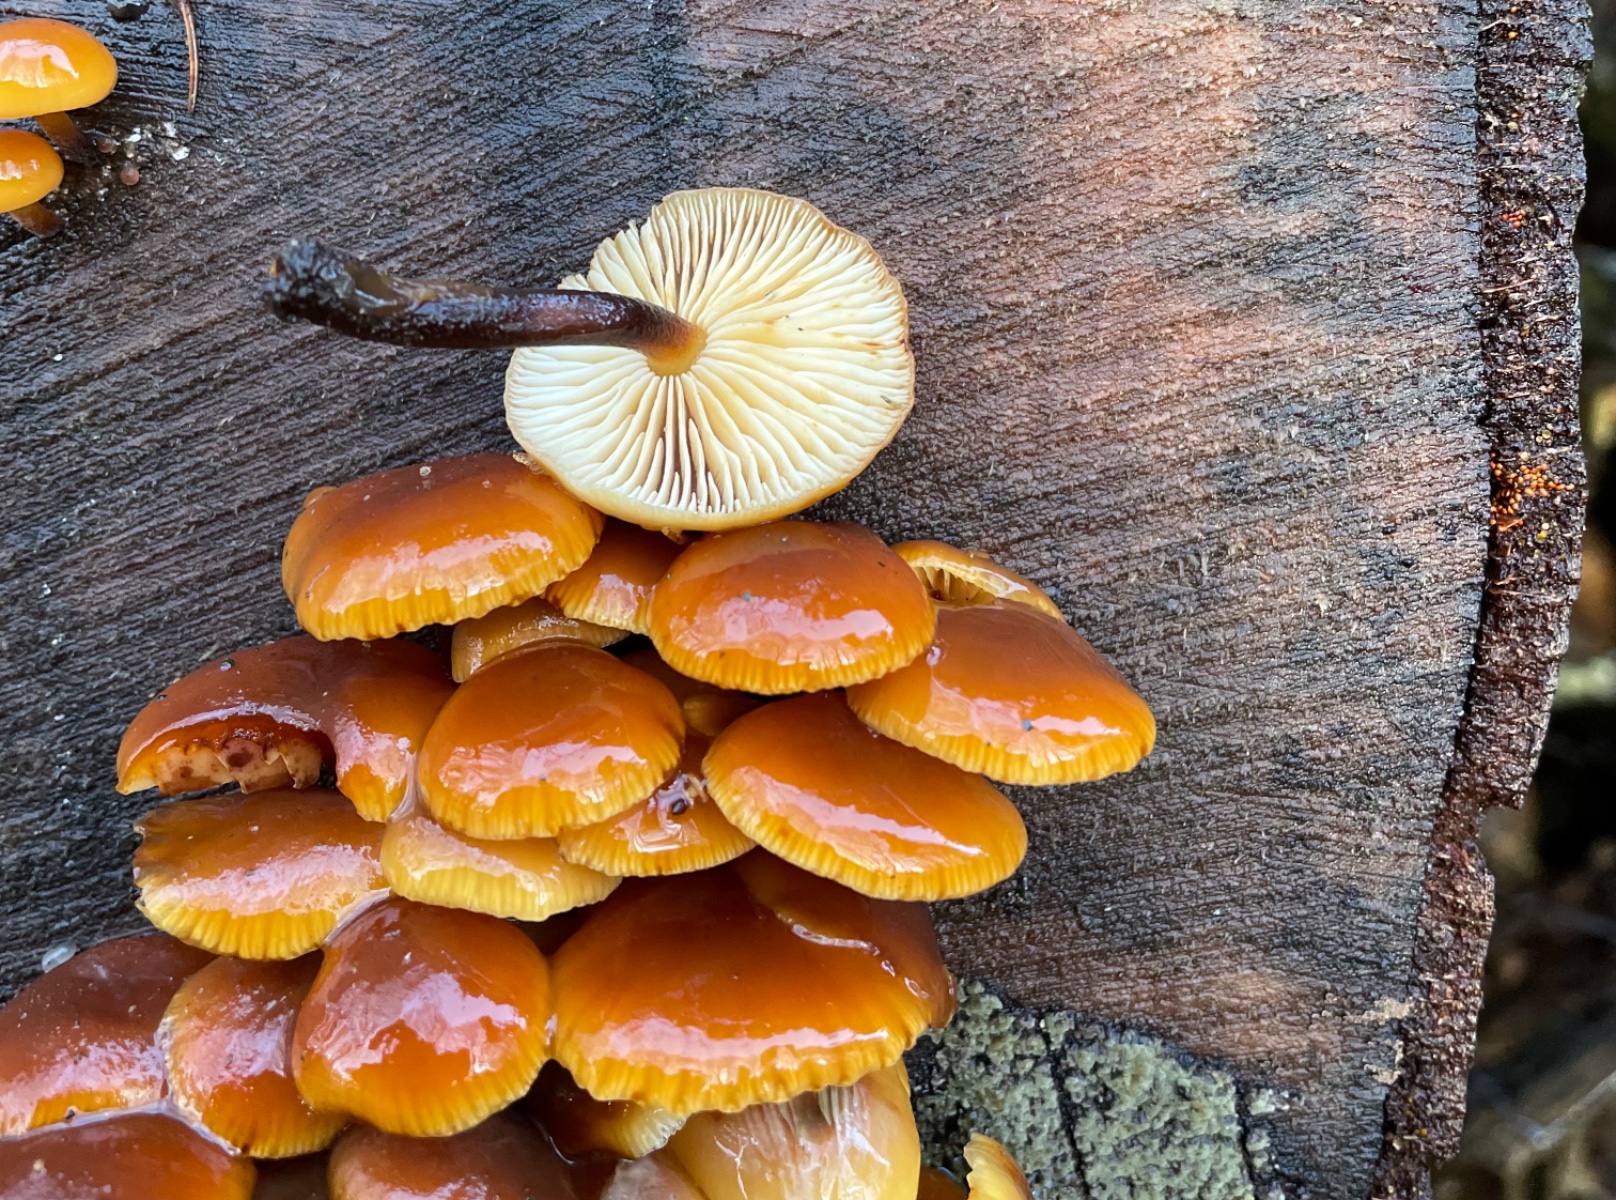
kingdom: Fungi
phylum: Basidiomycota
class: Agaricomycetes
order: Agaricales
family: Physalacriaceae
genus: Flammulina
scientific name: Flammulina velutipes
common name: gul fløjlsfod
